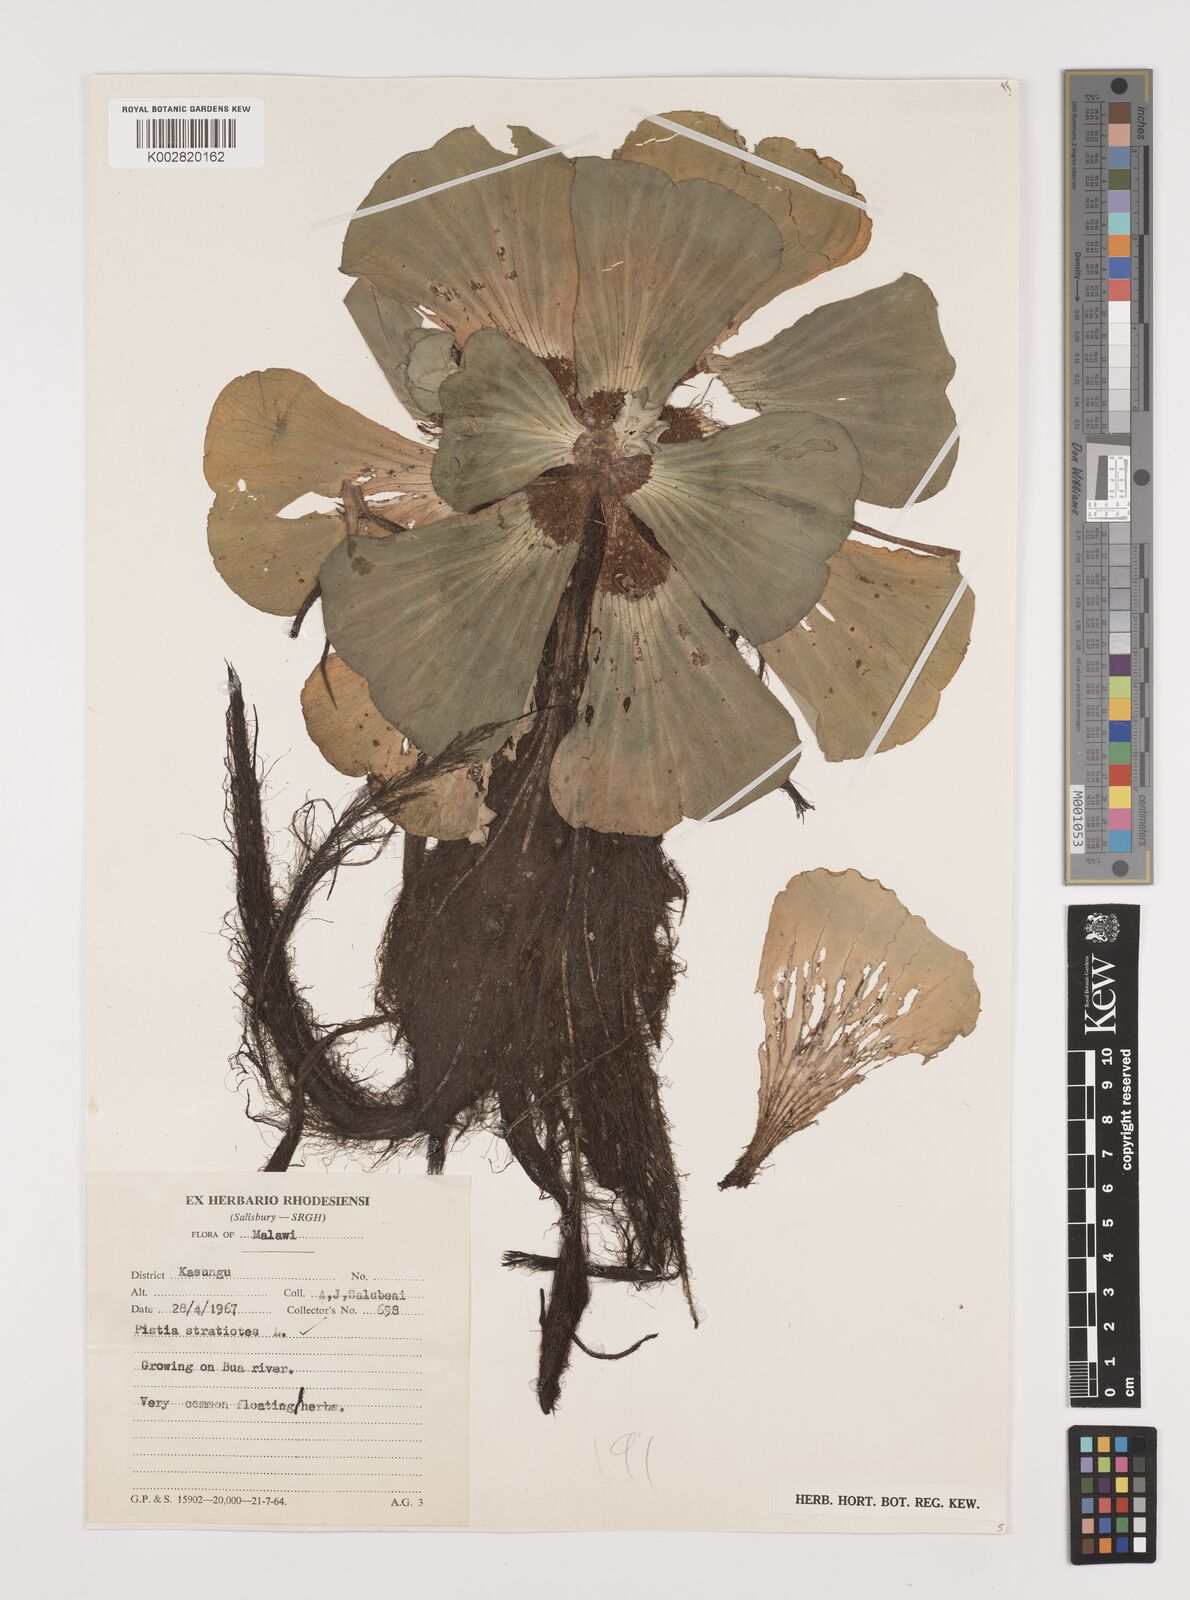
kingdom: Plantae
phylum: Tracheophyta
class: Liliopsida
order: Alismatales
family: Araceae
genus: Pistia
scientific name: Pistia stratiotes
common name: Water lettuce
